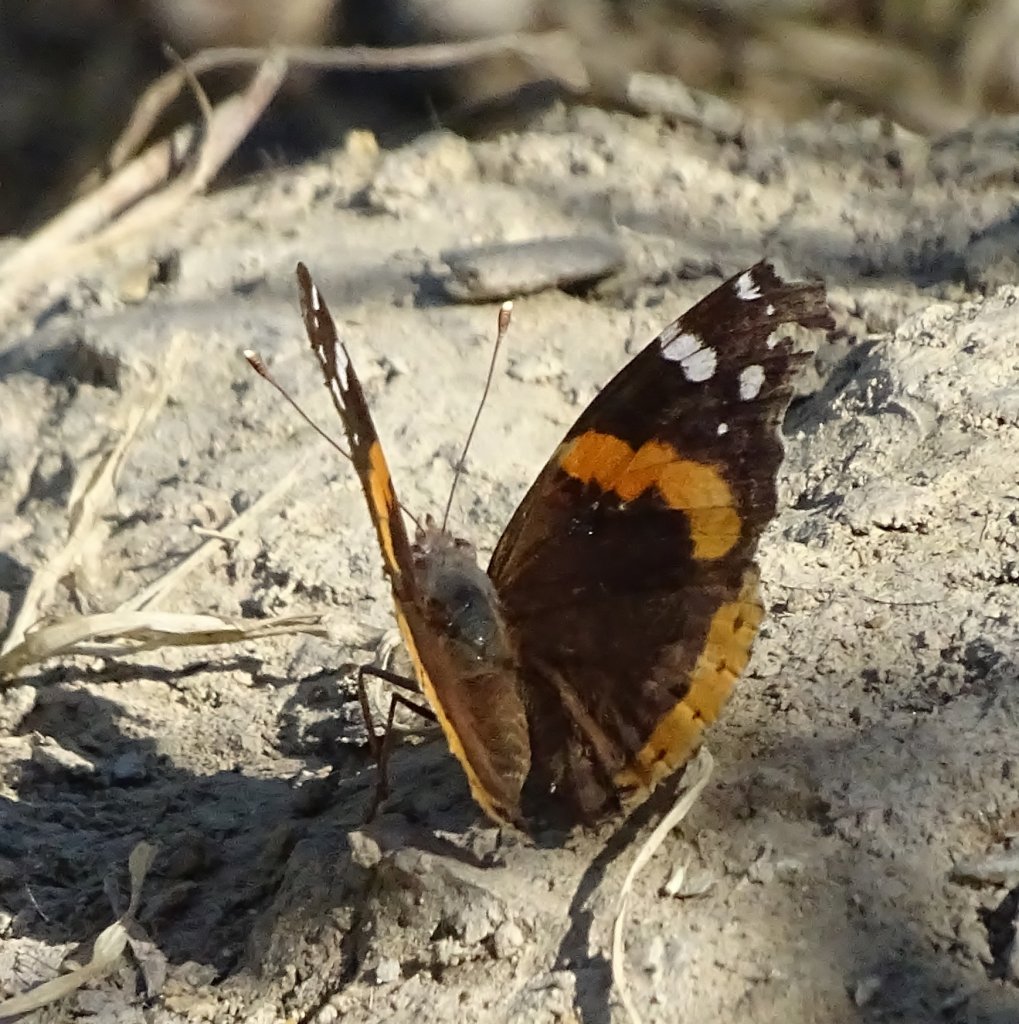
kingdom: Animalia
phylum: Arthropoda
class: Insecta
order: Lepidoptera
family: Nymphalidae
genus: Vanessa
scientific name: Vanessa atalanta
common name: Red Admiral
